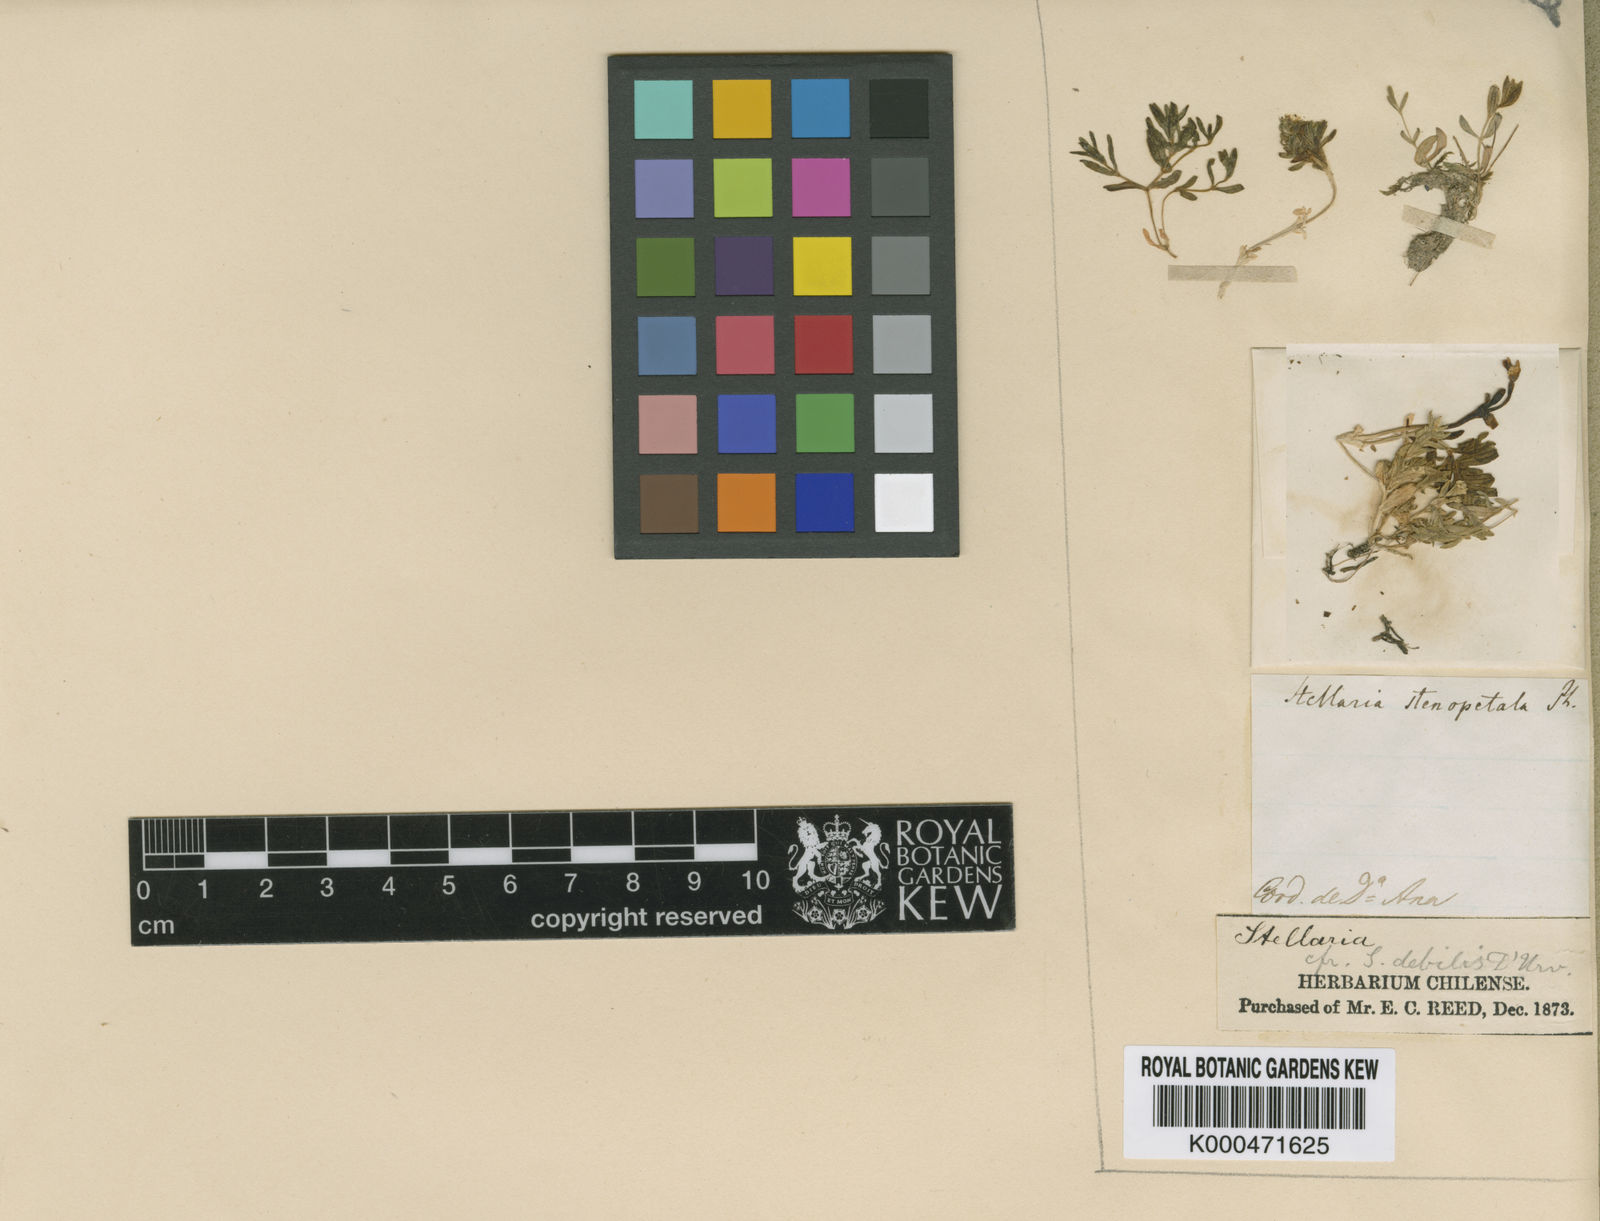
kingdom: Plantae
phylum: Tracheophyta
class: Magnoliopsida
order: Caryophyllales
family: Caryophyllaceae
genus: Stellaria
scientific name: Stellaria
